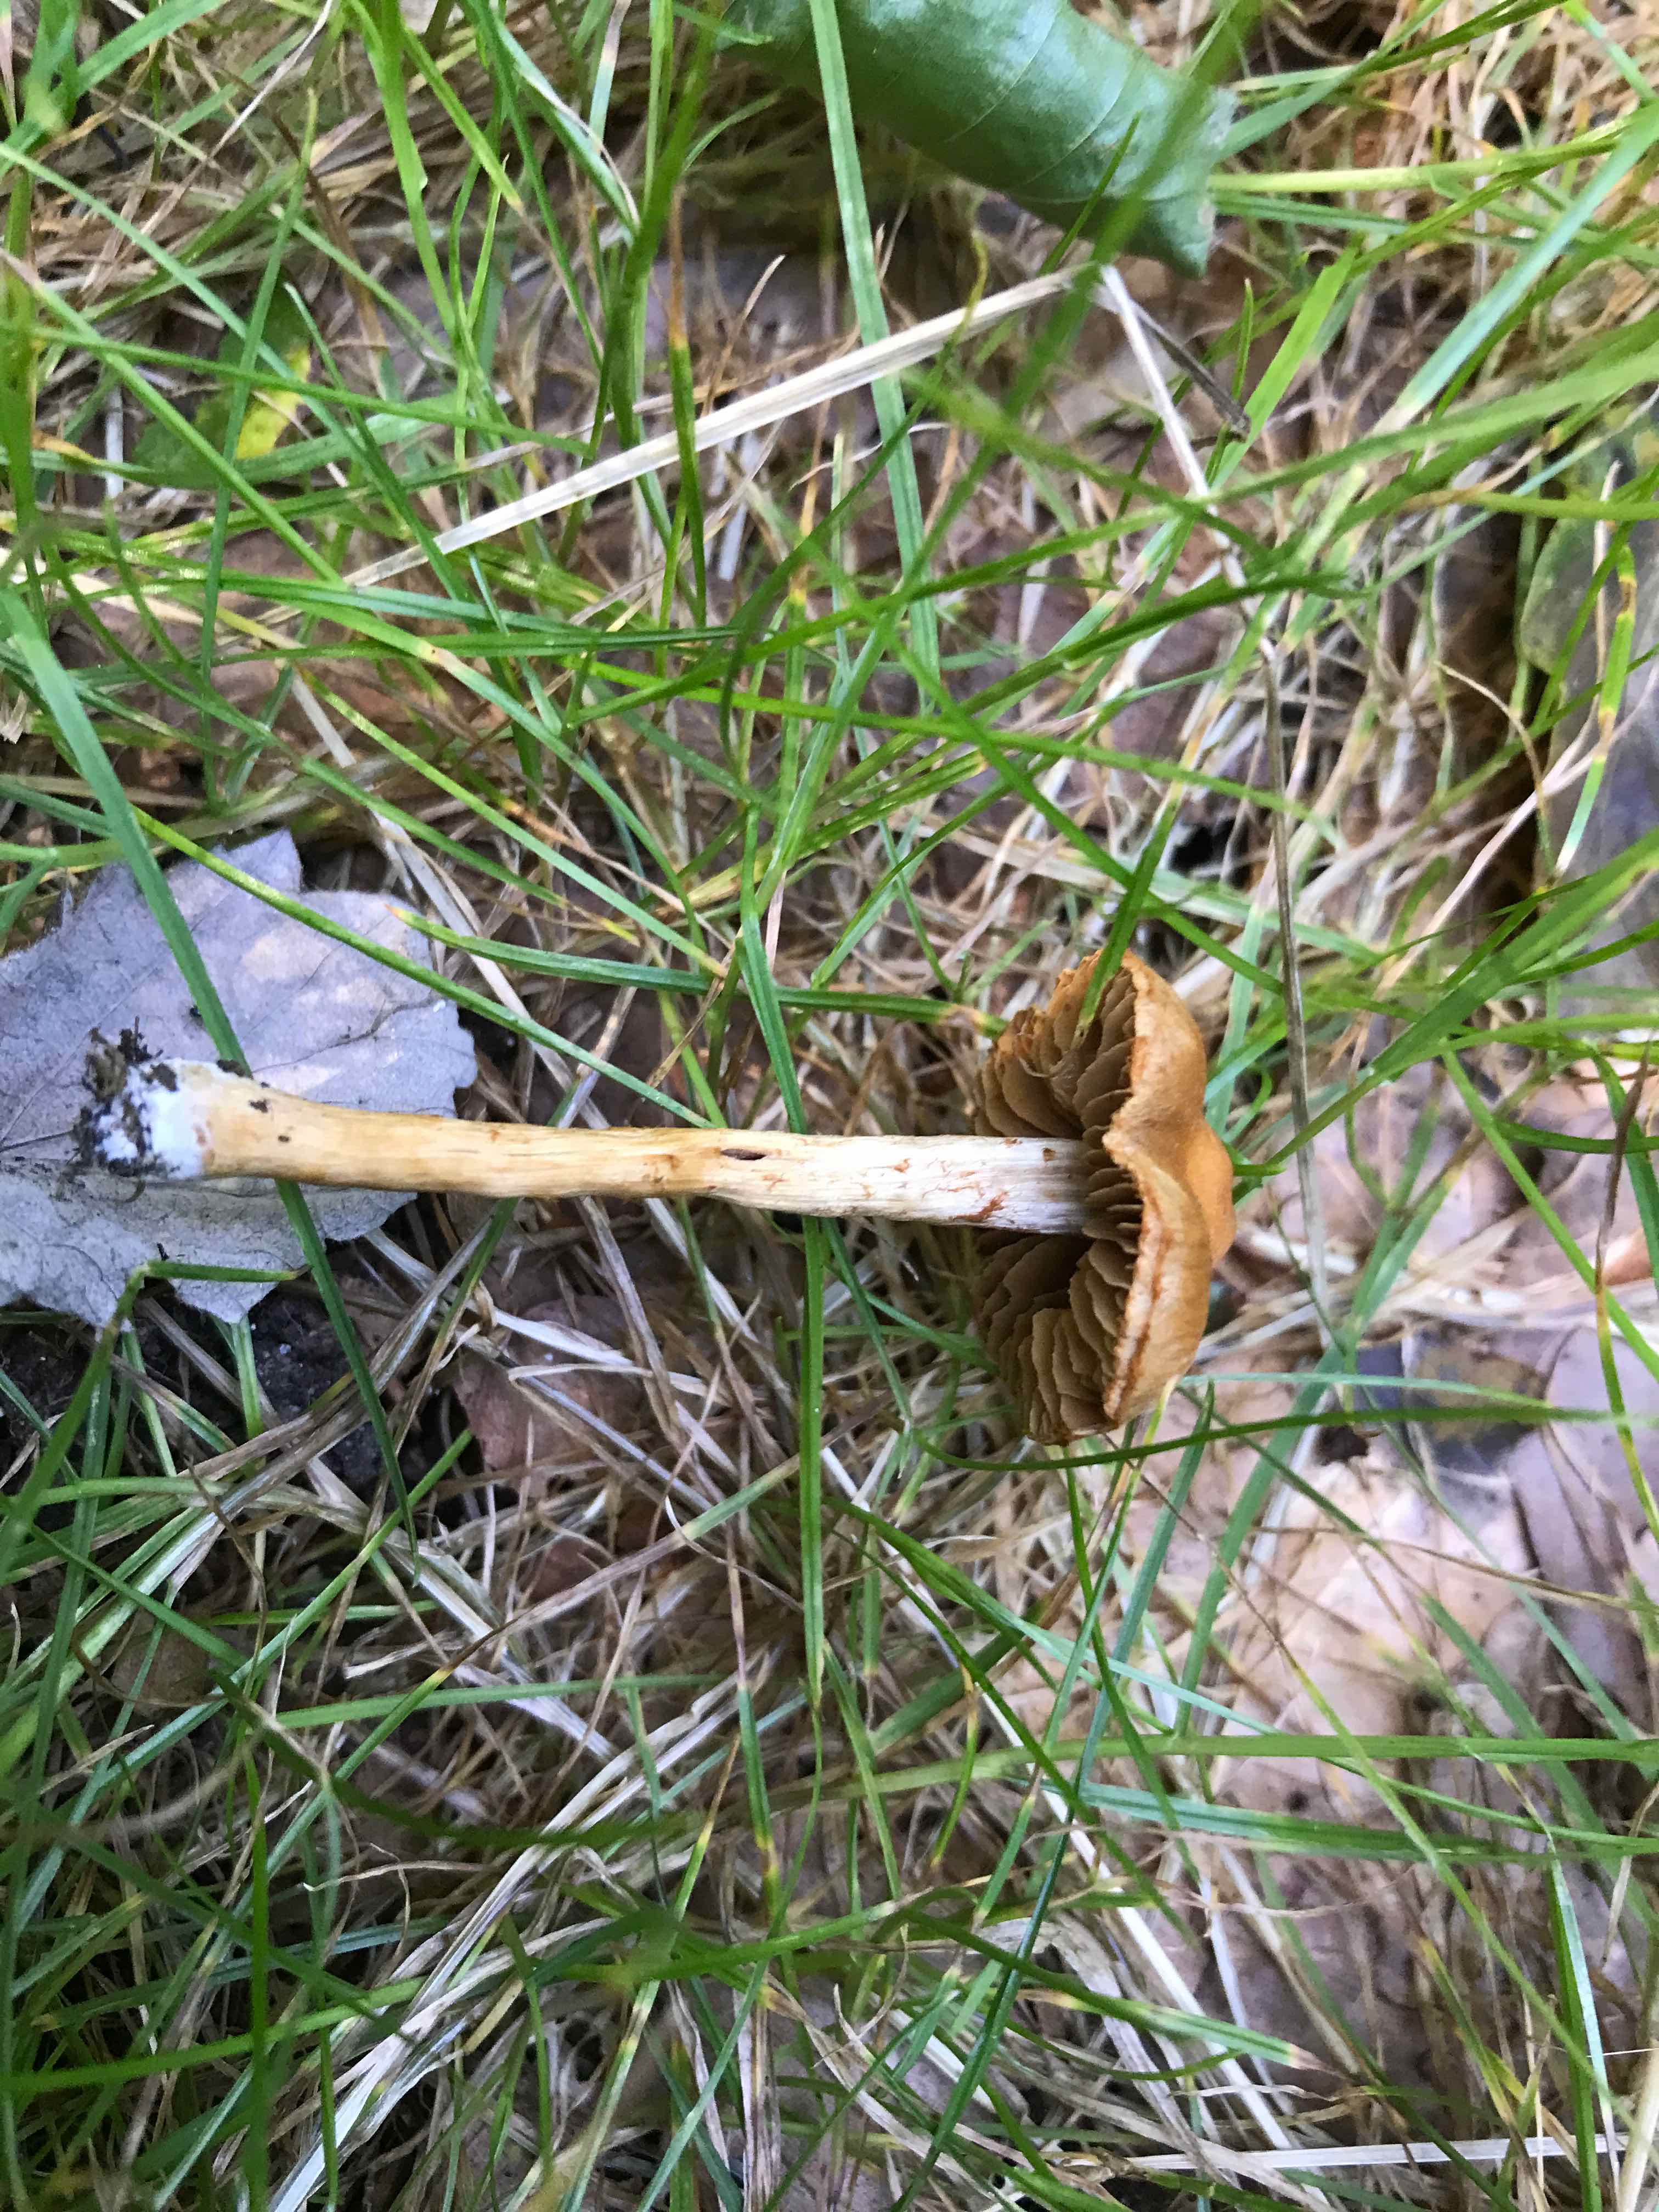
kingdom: Fungi
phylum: Basidiomycota
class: Agaricomycetes
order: Agaricales
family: Cortinariaceae
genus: Cortinarius
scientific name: Cortinarius
